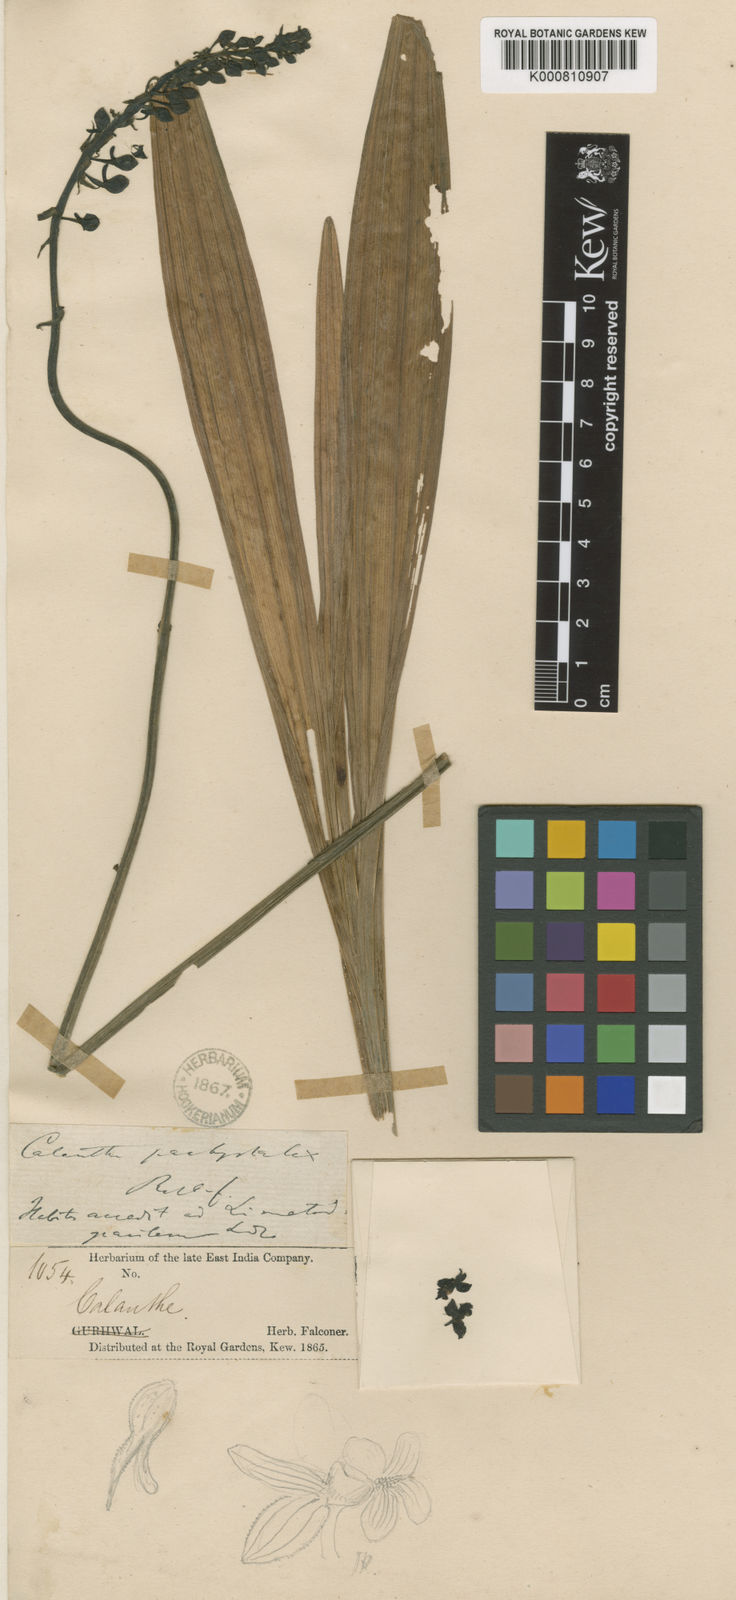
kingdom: Plantae
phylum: Tracheophyta
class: Liliopsida
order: Asparagales
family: Orchidaceae
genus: Calanthe
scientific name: Calanthe davidii
